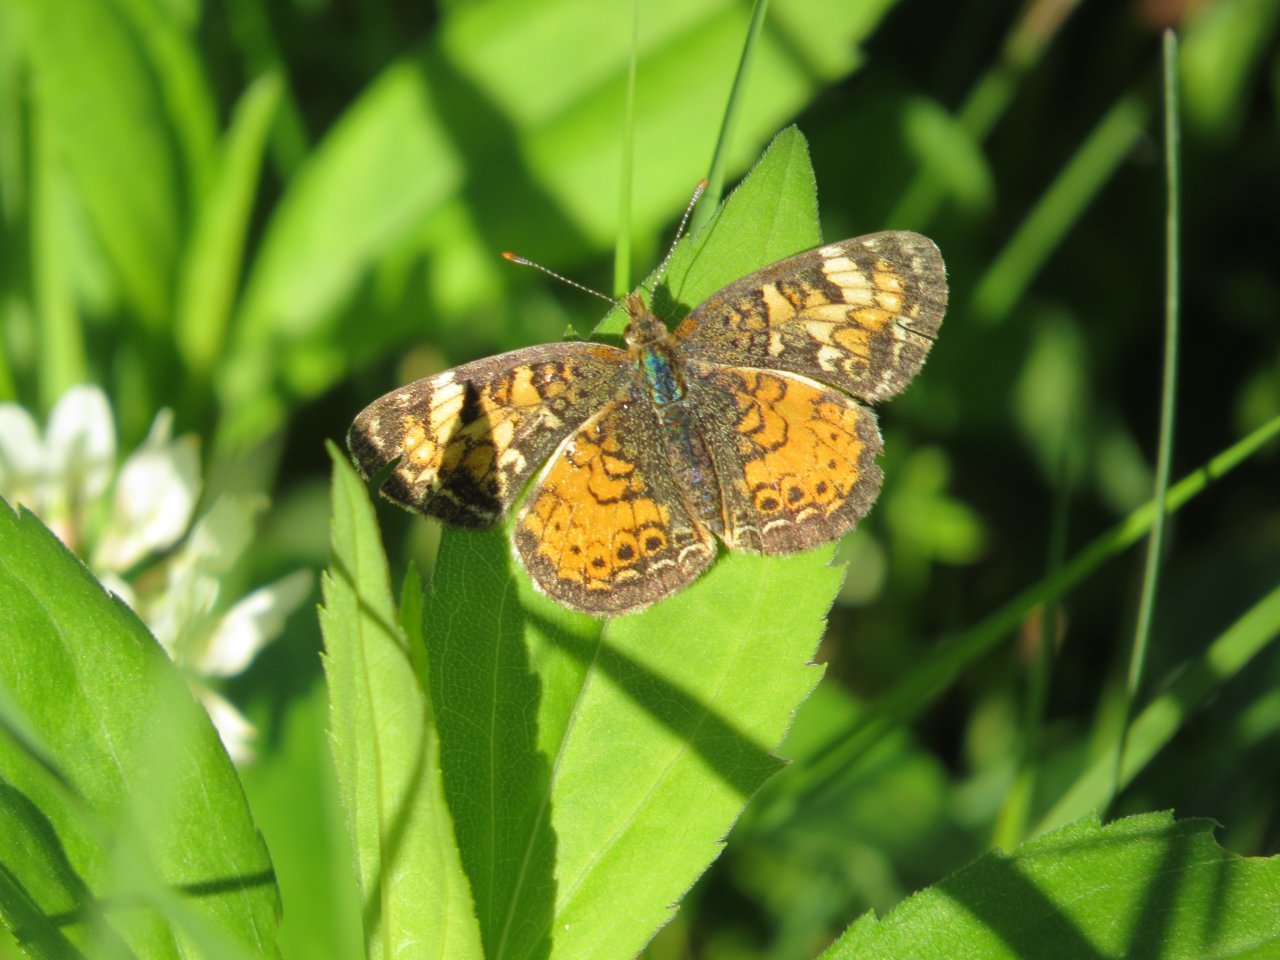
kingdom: Animalia
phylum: Arthropoda
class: Insecta
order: Lepidoptera
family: Nymphalidae
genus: Phyciodes
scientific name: Phyciodes batesii
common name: Tawny Crescent
